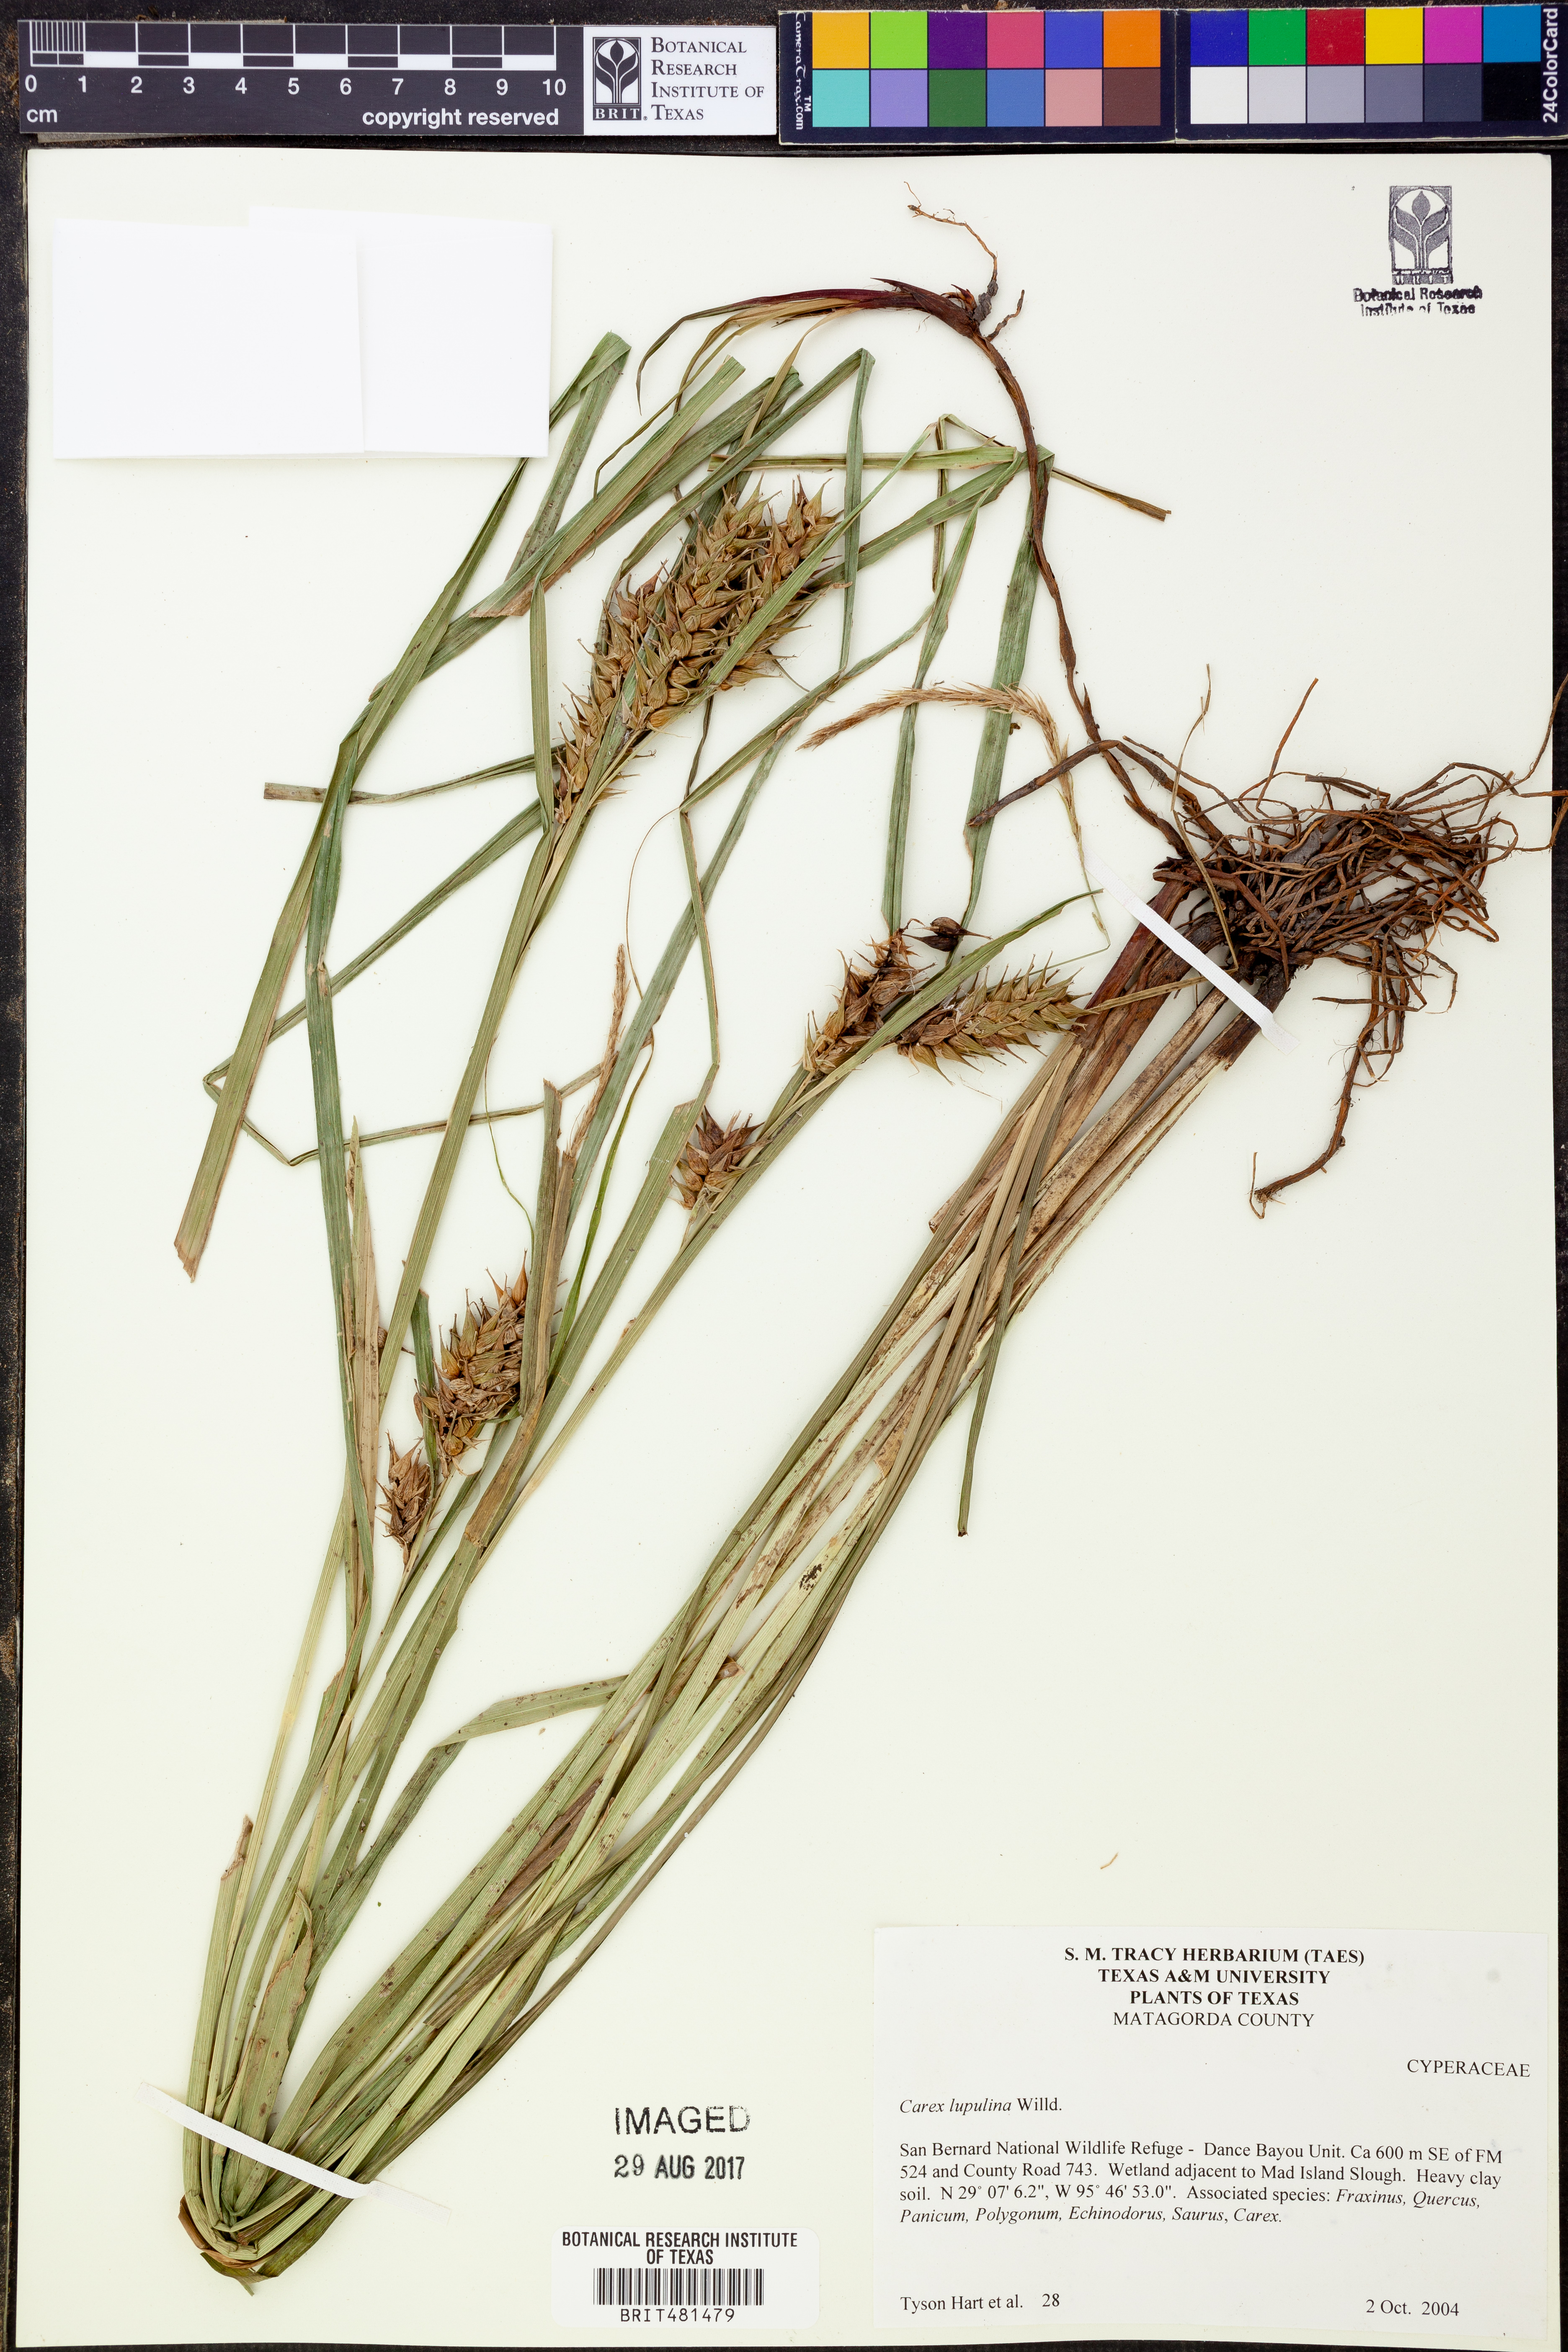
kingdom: Plantae
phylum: Tracheophyta
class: Liliopsida
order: Poales
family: Cyperaceae
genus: Carex
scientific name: Carex lupulina
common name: Hop sedge
